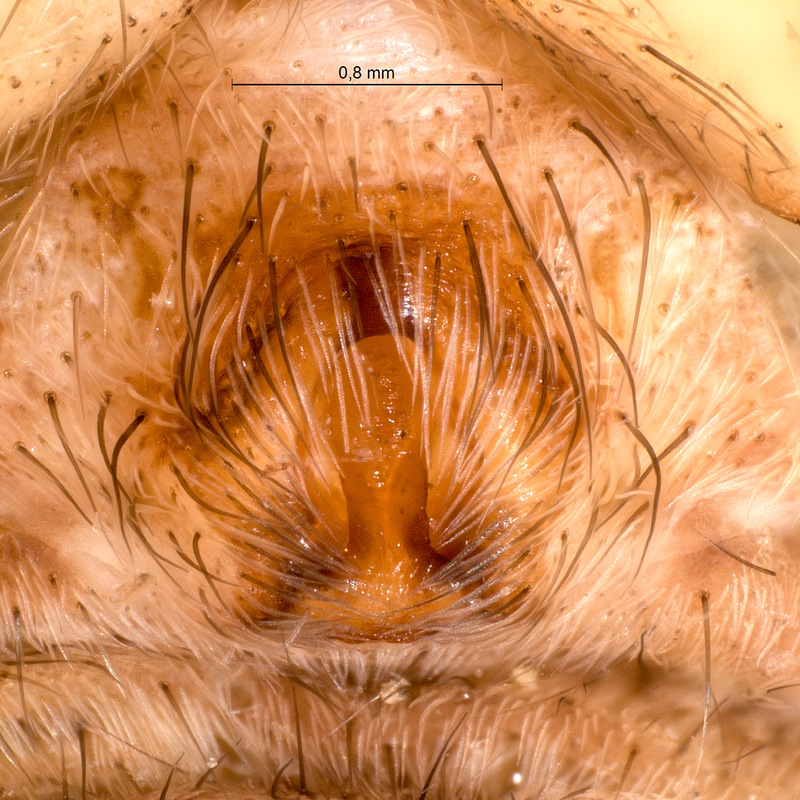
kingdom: Animalia
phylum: Arthropoda
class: Arachnida
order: Araneae
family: Lycosidae
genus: Alopecosa
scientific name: Alopecosa cuneata
